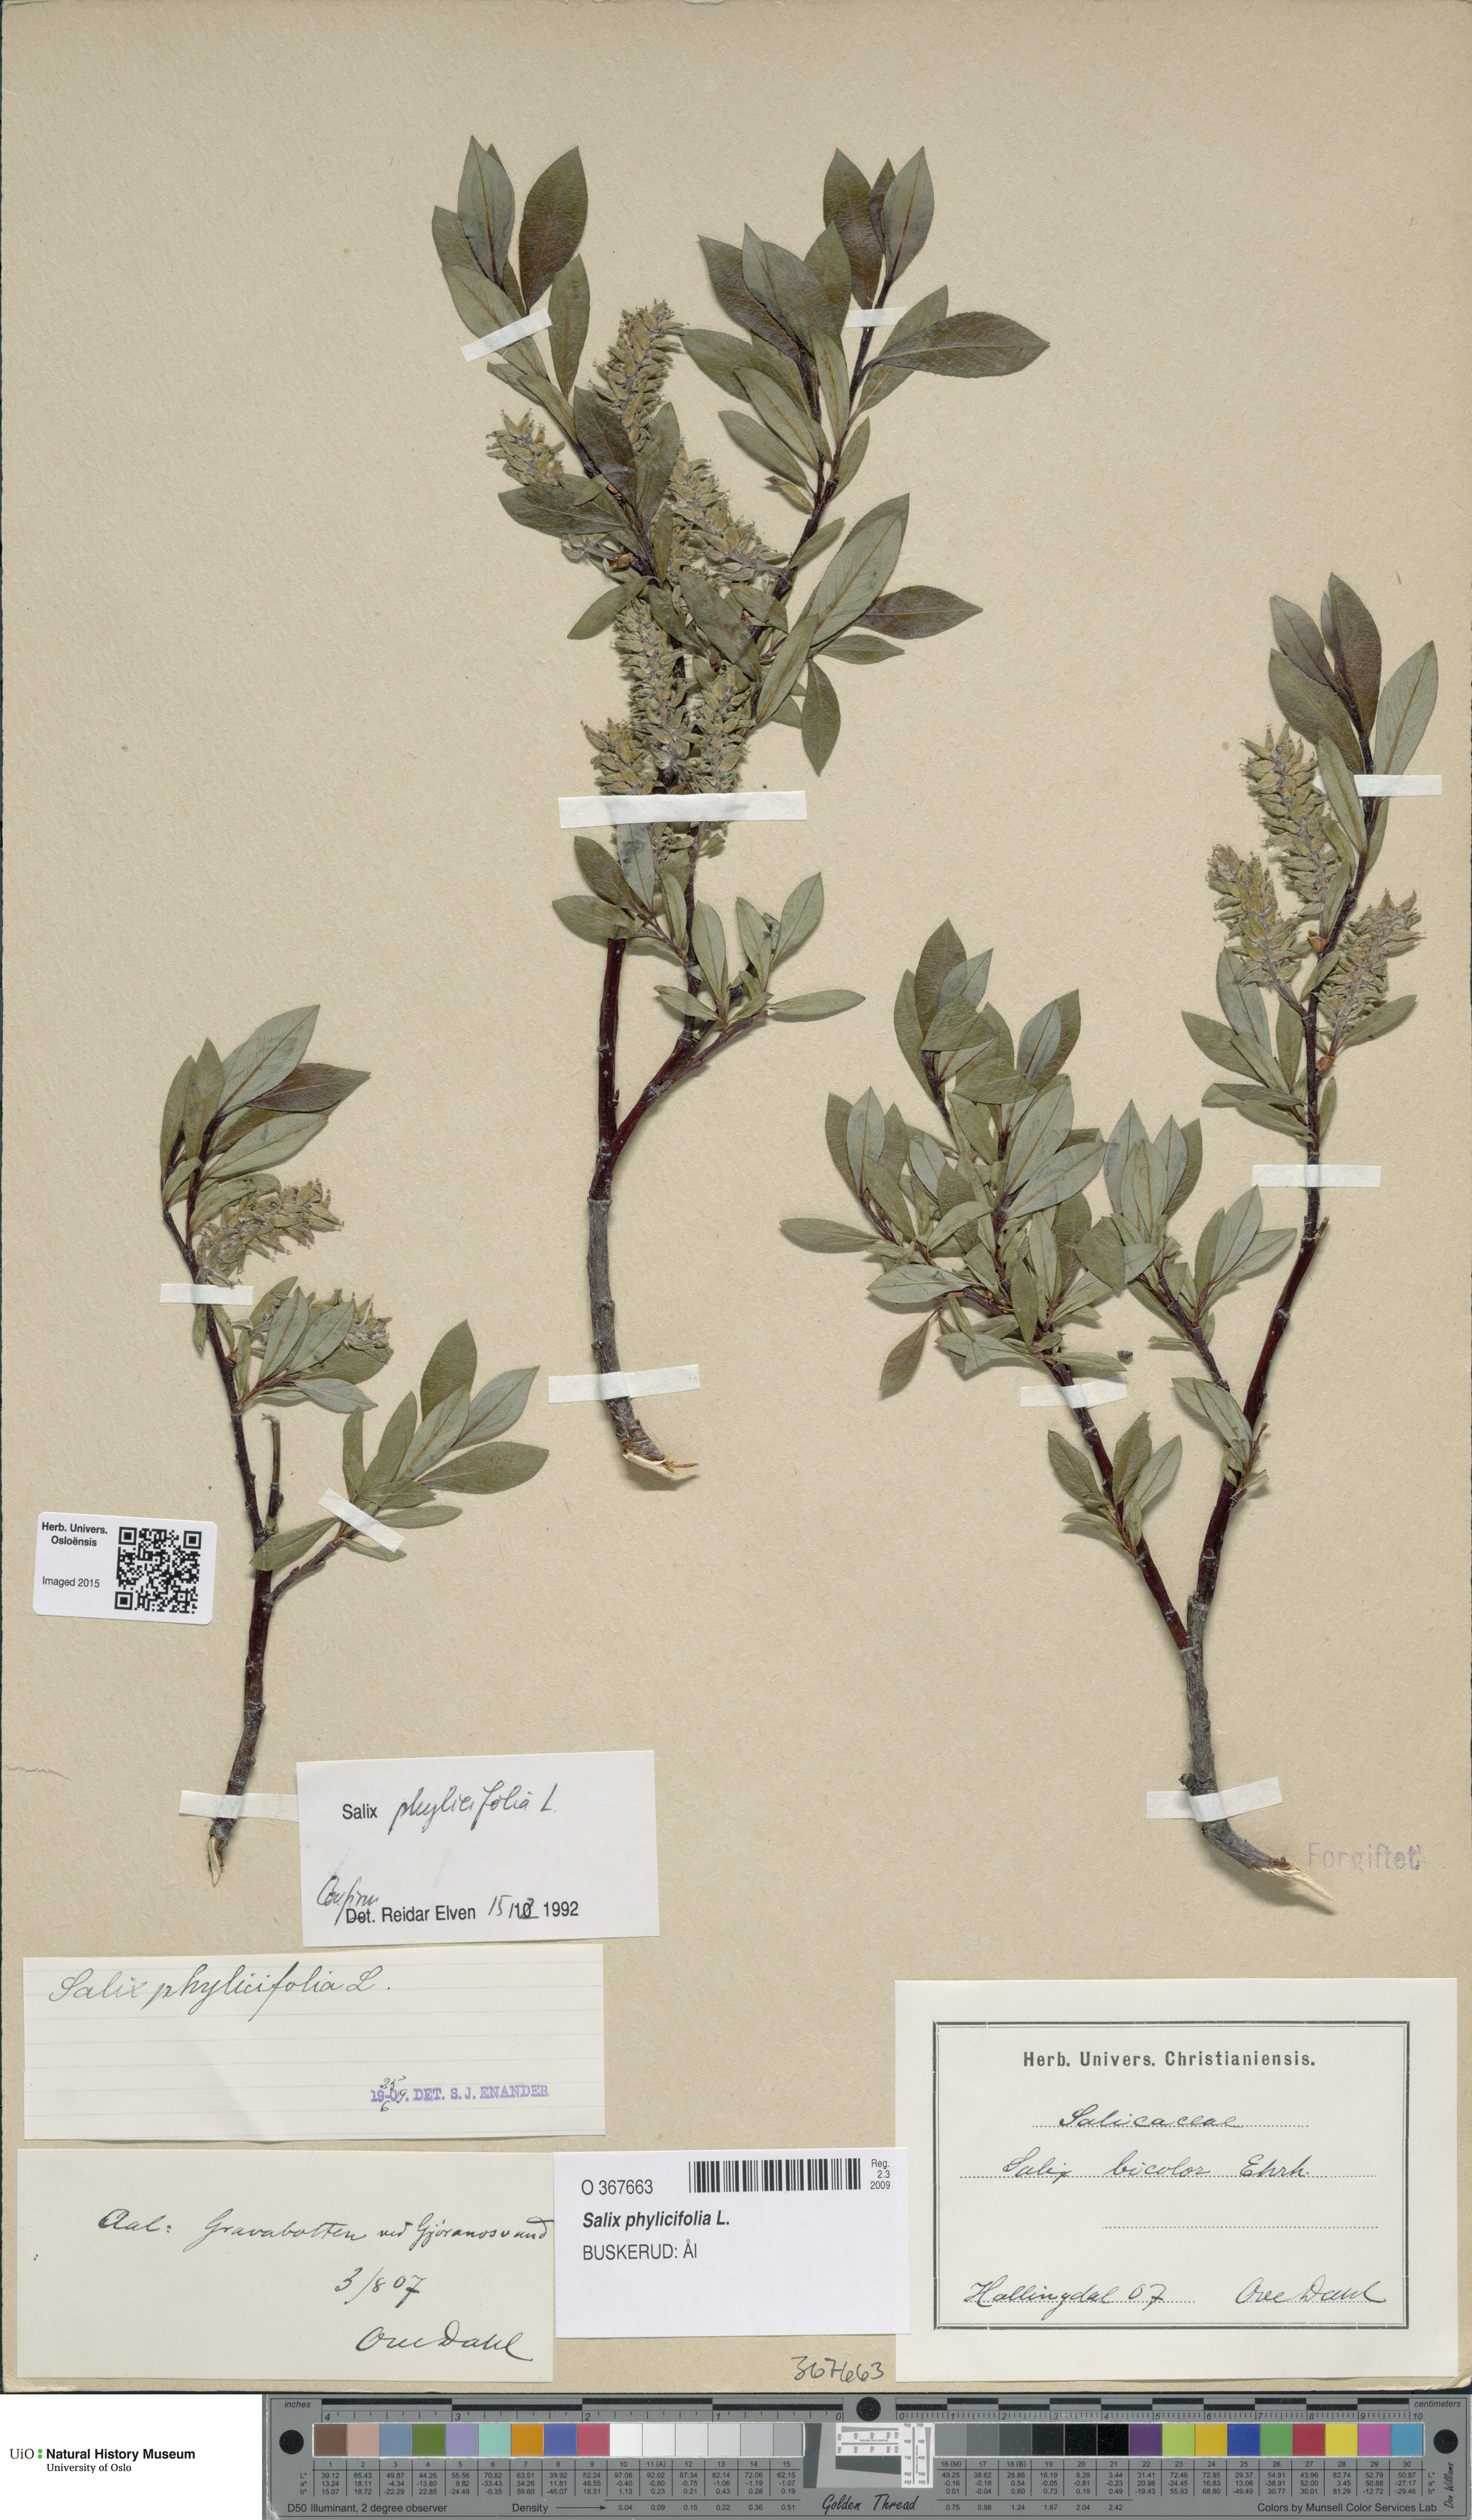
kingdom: Plantae
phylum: Tracheophyta
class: Magnoliopsida
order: Malpighiales
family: Salicaceae
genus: Salix
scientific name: Salix phylicifolia
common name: Tea-leaved willow
